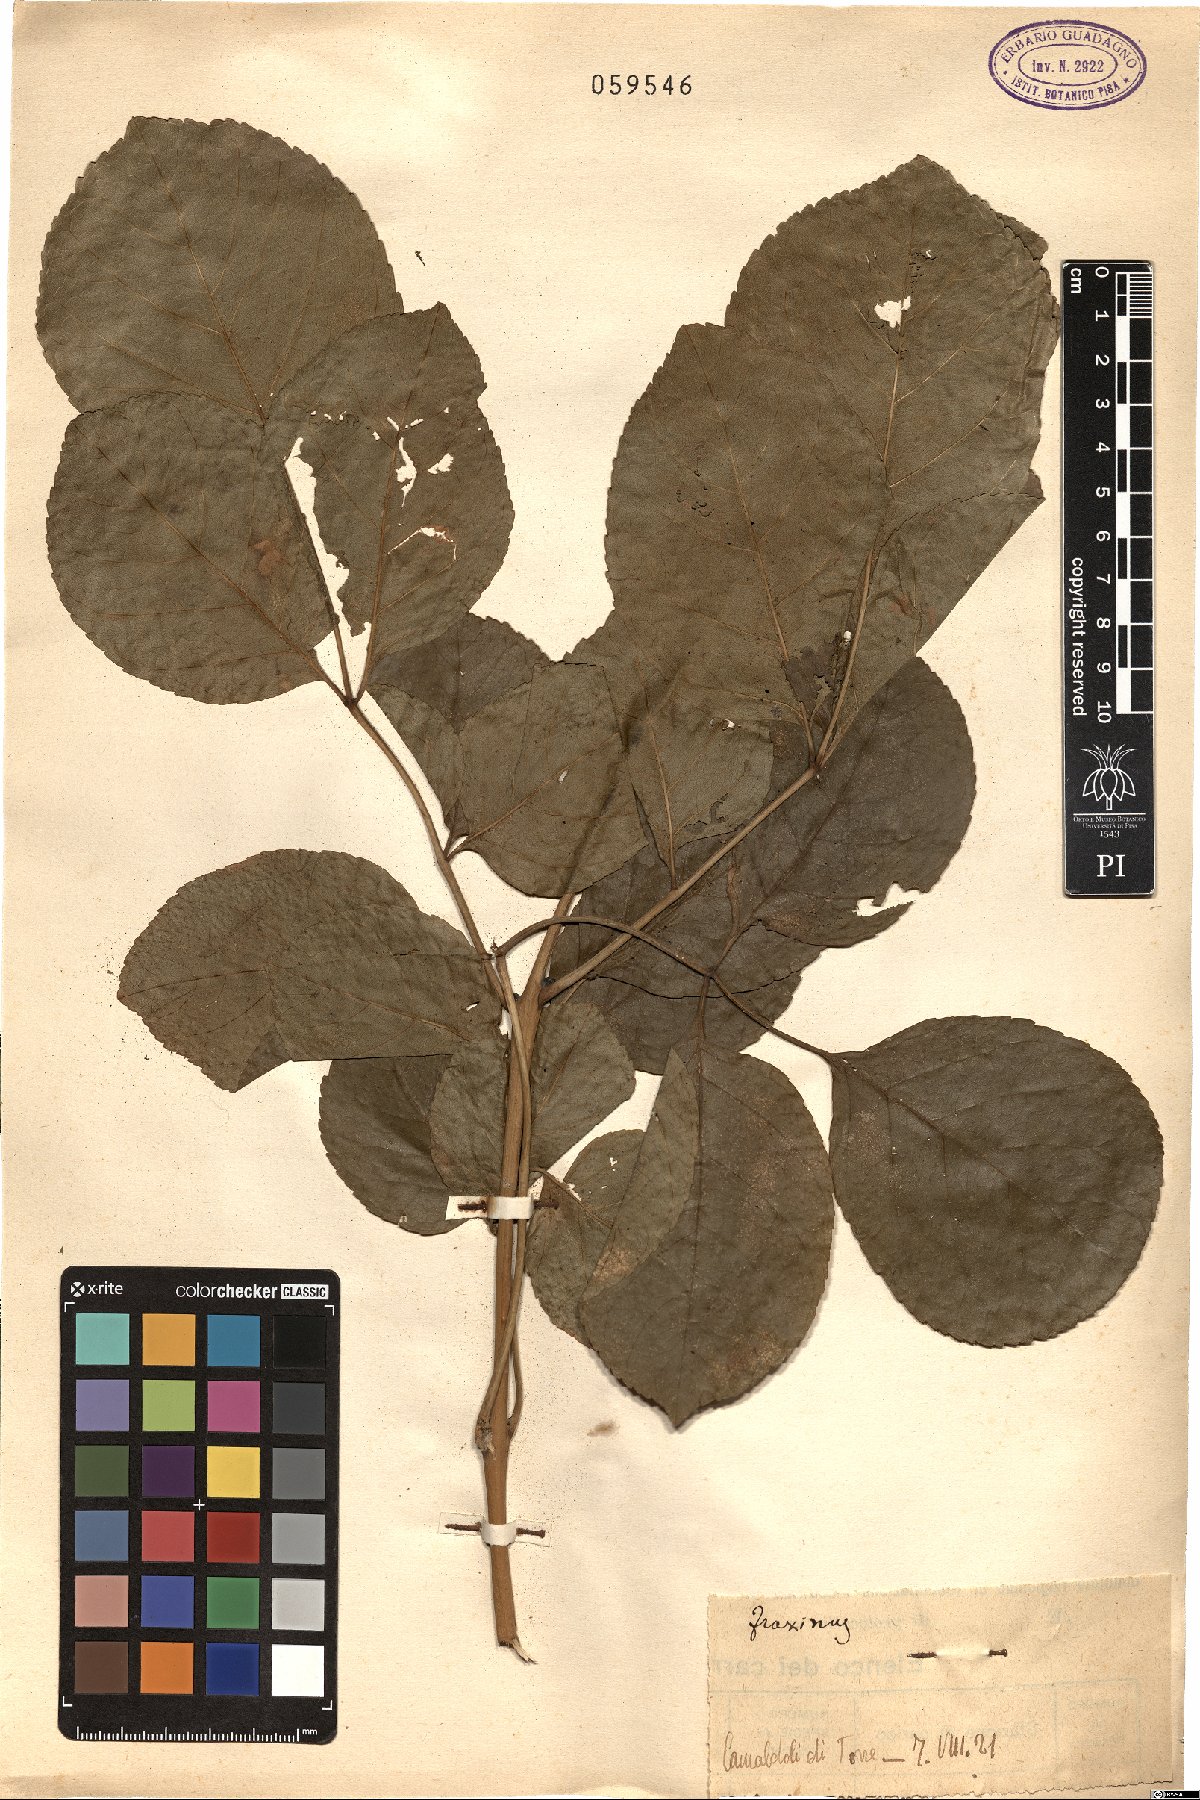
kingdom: Plantae
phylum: Tracheophyta
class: Magnoliopsida
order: Lamiales
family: Oleaceae
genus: Fraxinus
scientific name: Fraxinus
